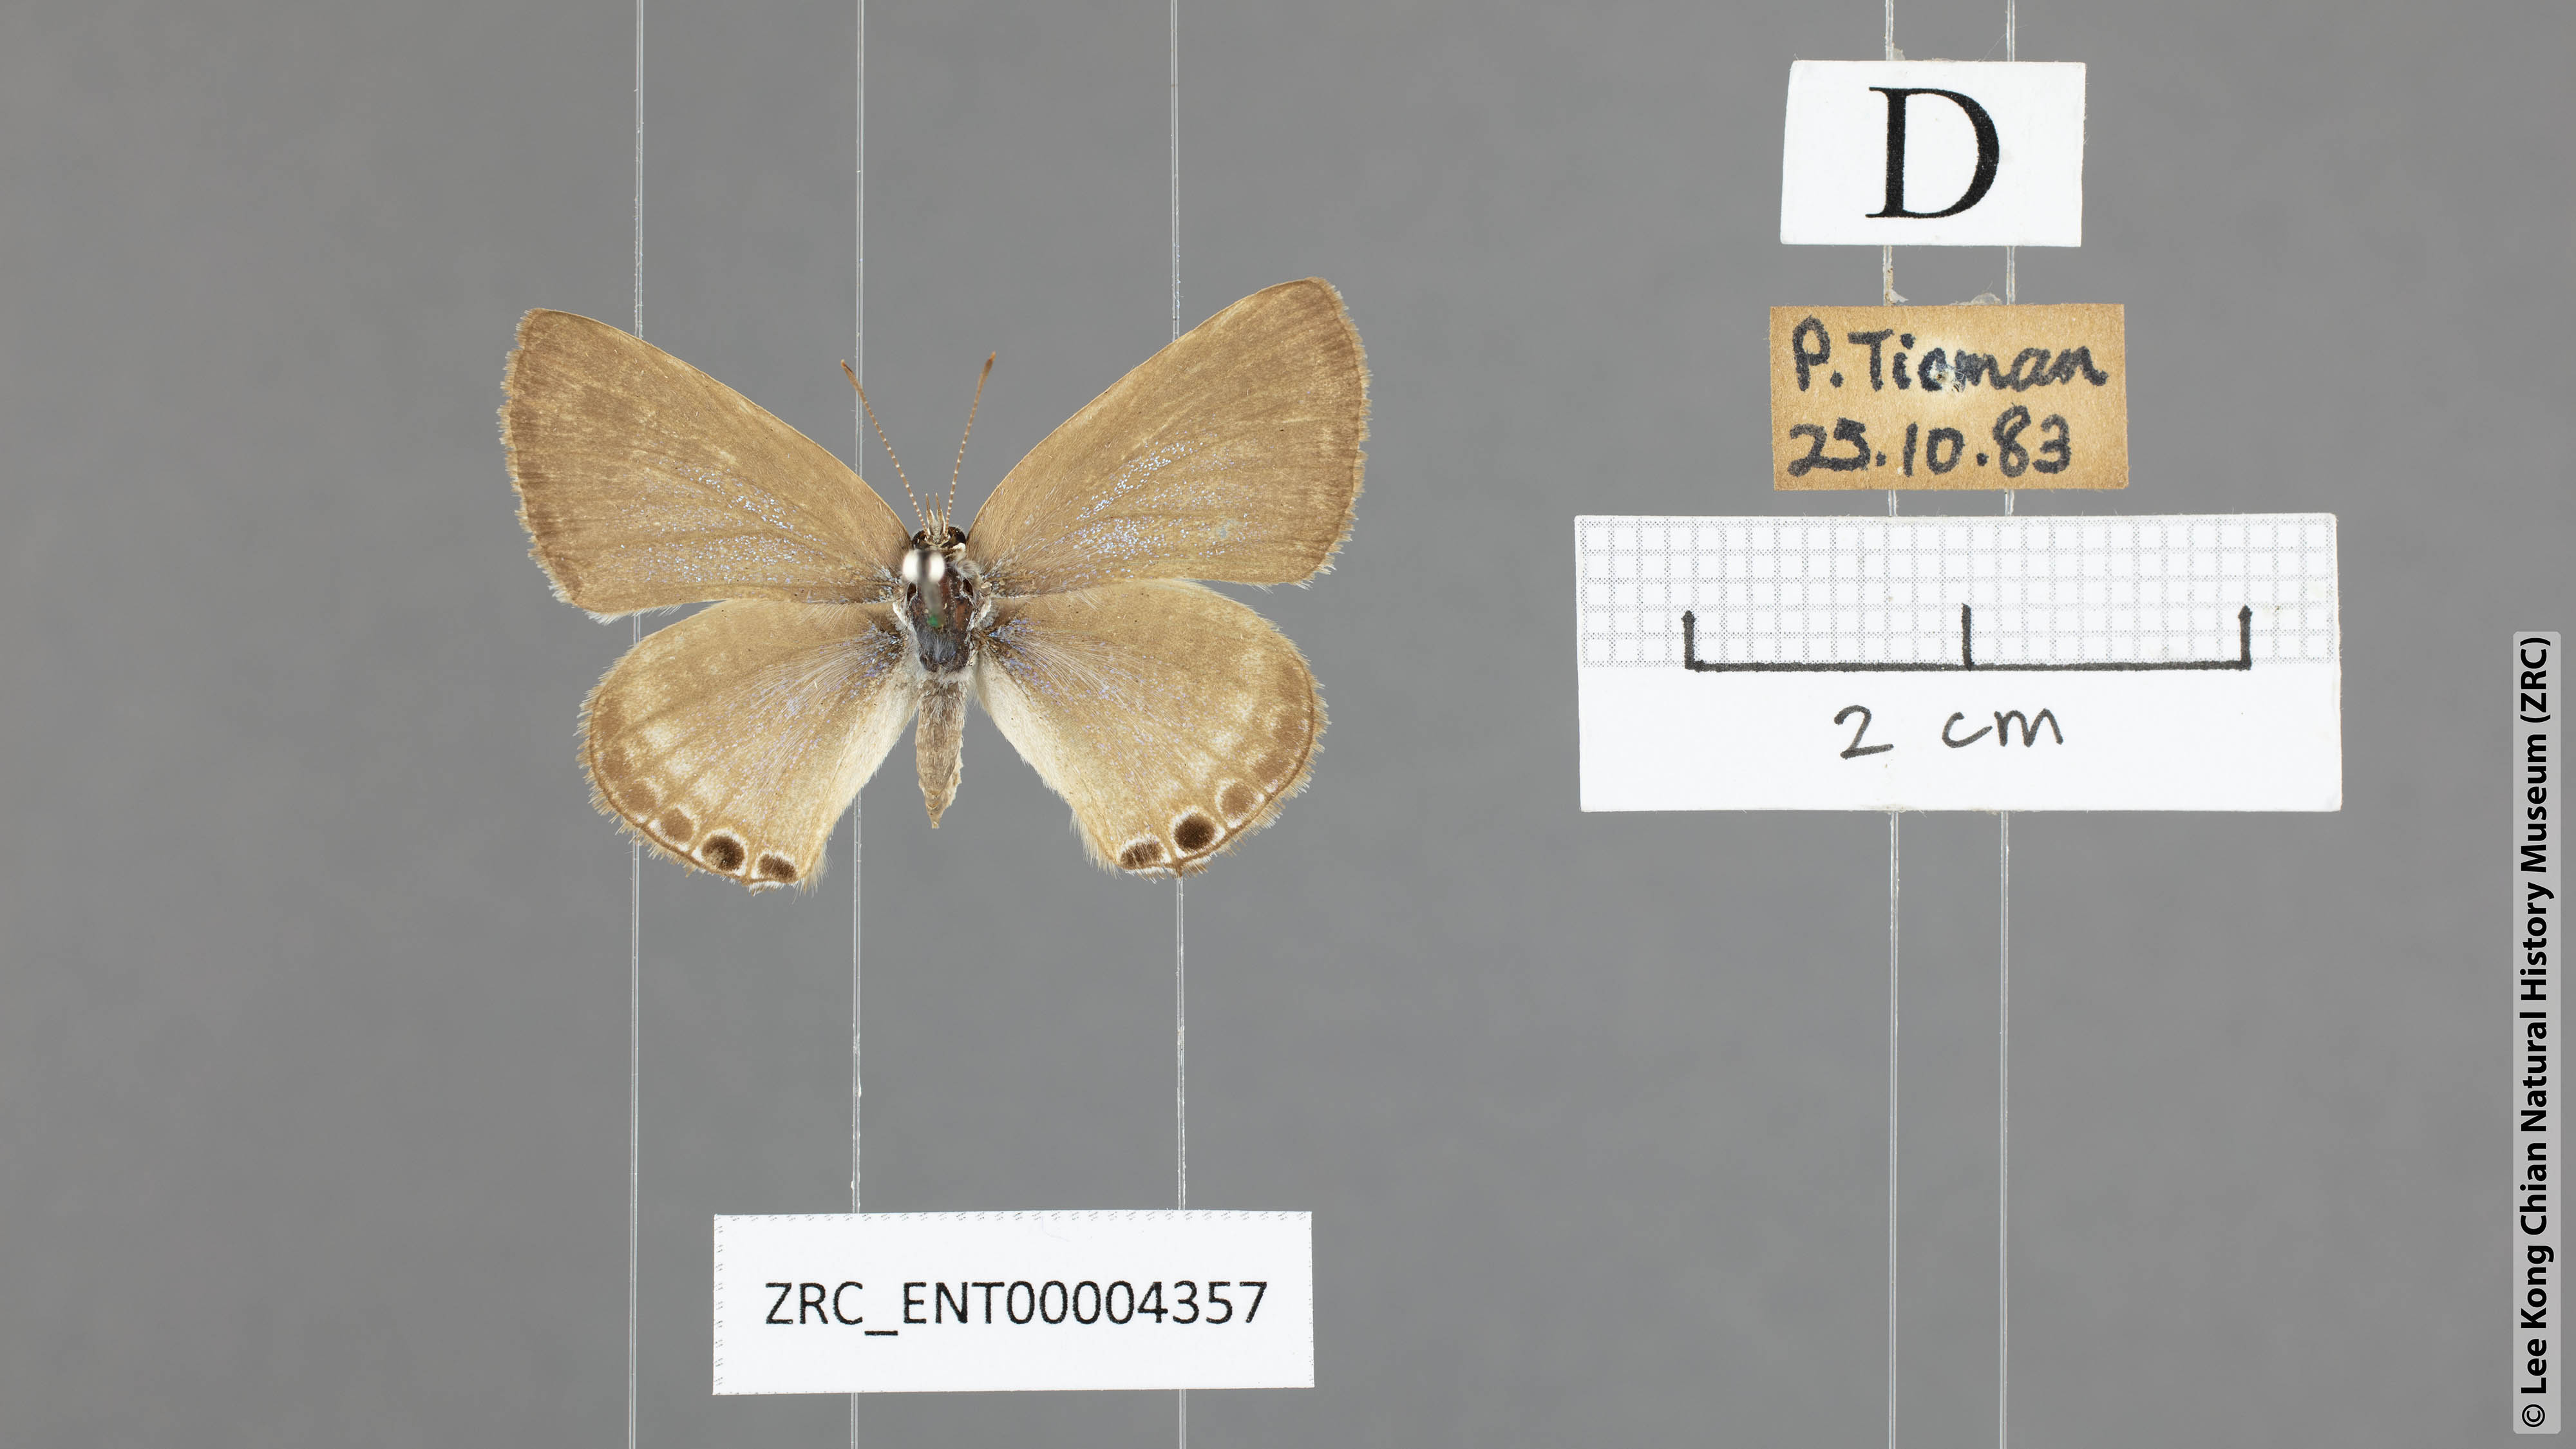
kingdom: Animalia
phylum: Arthropoda
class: Insecta
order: Lepidoptera
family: Lycaenidae
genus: Lampides
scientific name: Lampides boeticus
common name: Long-tailed blue
